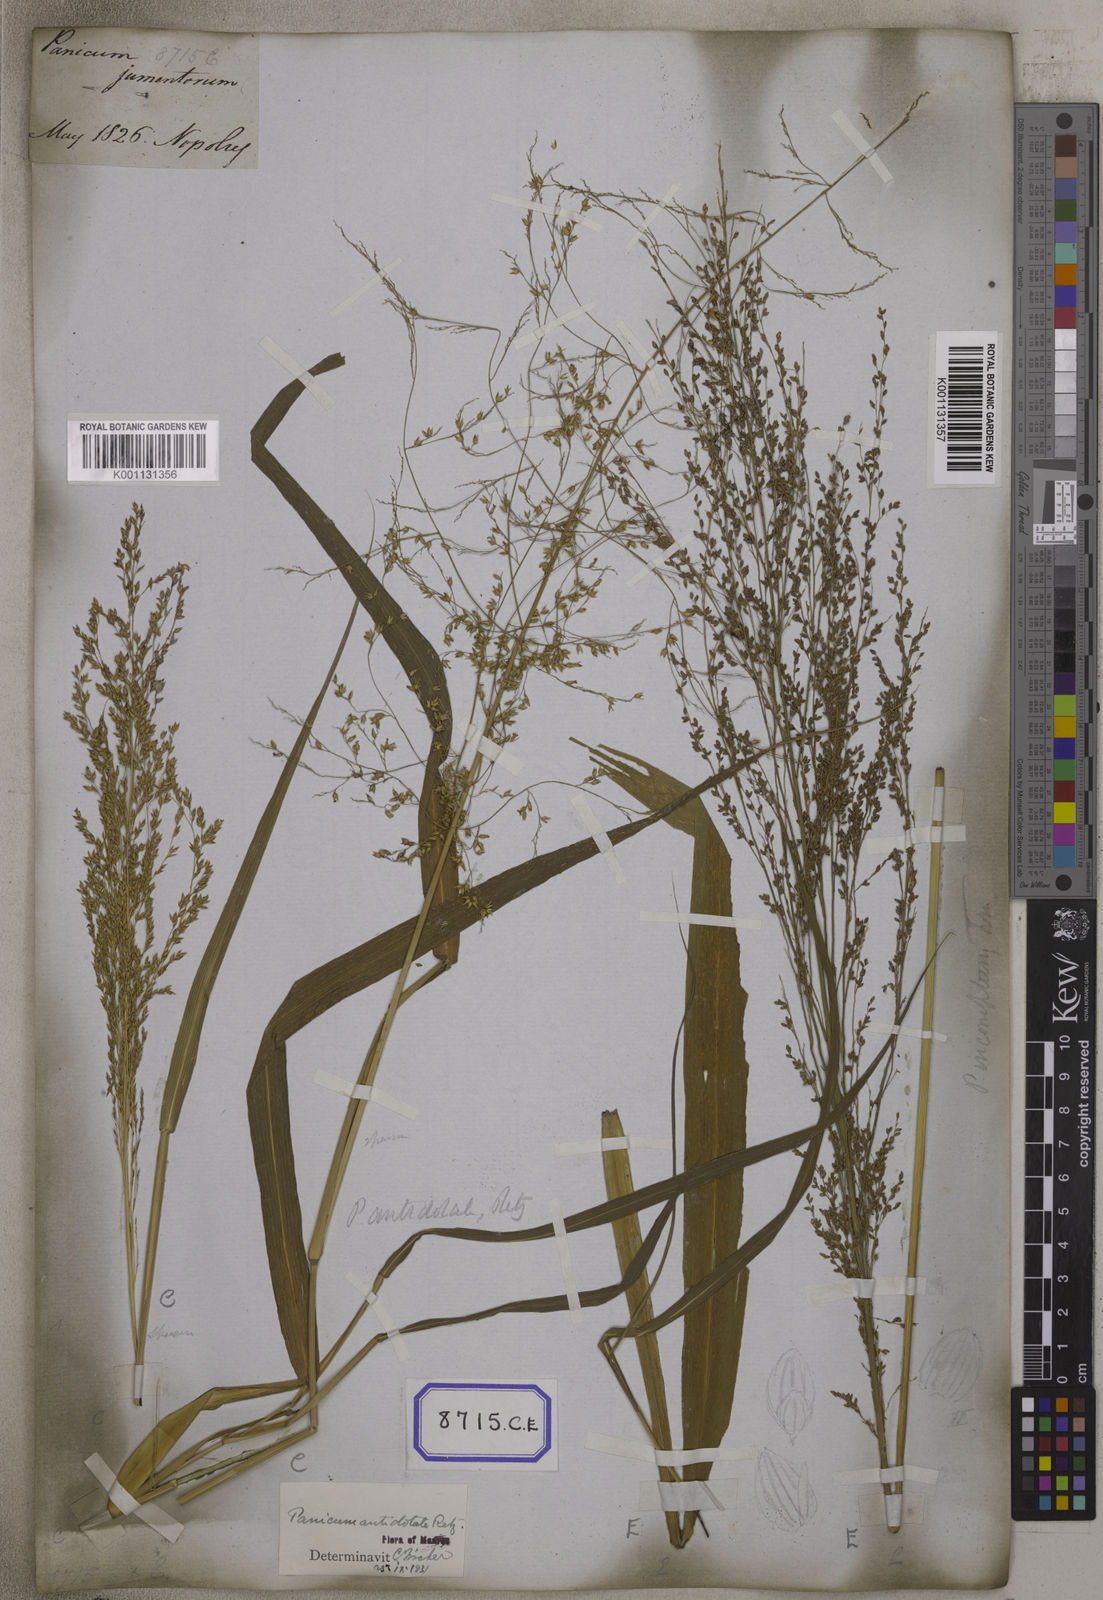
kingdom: Plantae
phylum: Tracheophyta
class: Liliopsida
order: Poales
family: Poaceae
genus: Megathyrsus
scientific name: Megathyrsus maximus
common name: Guineagrass
